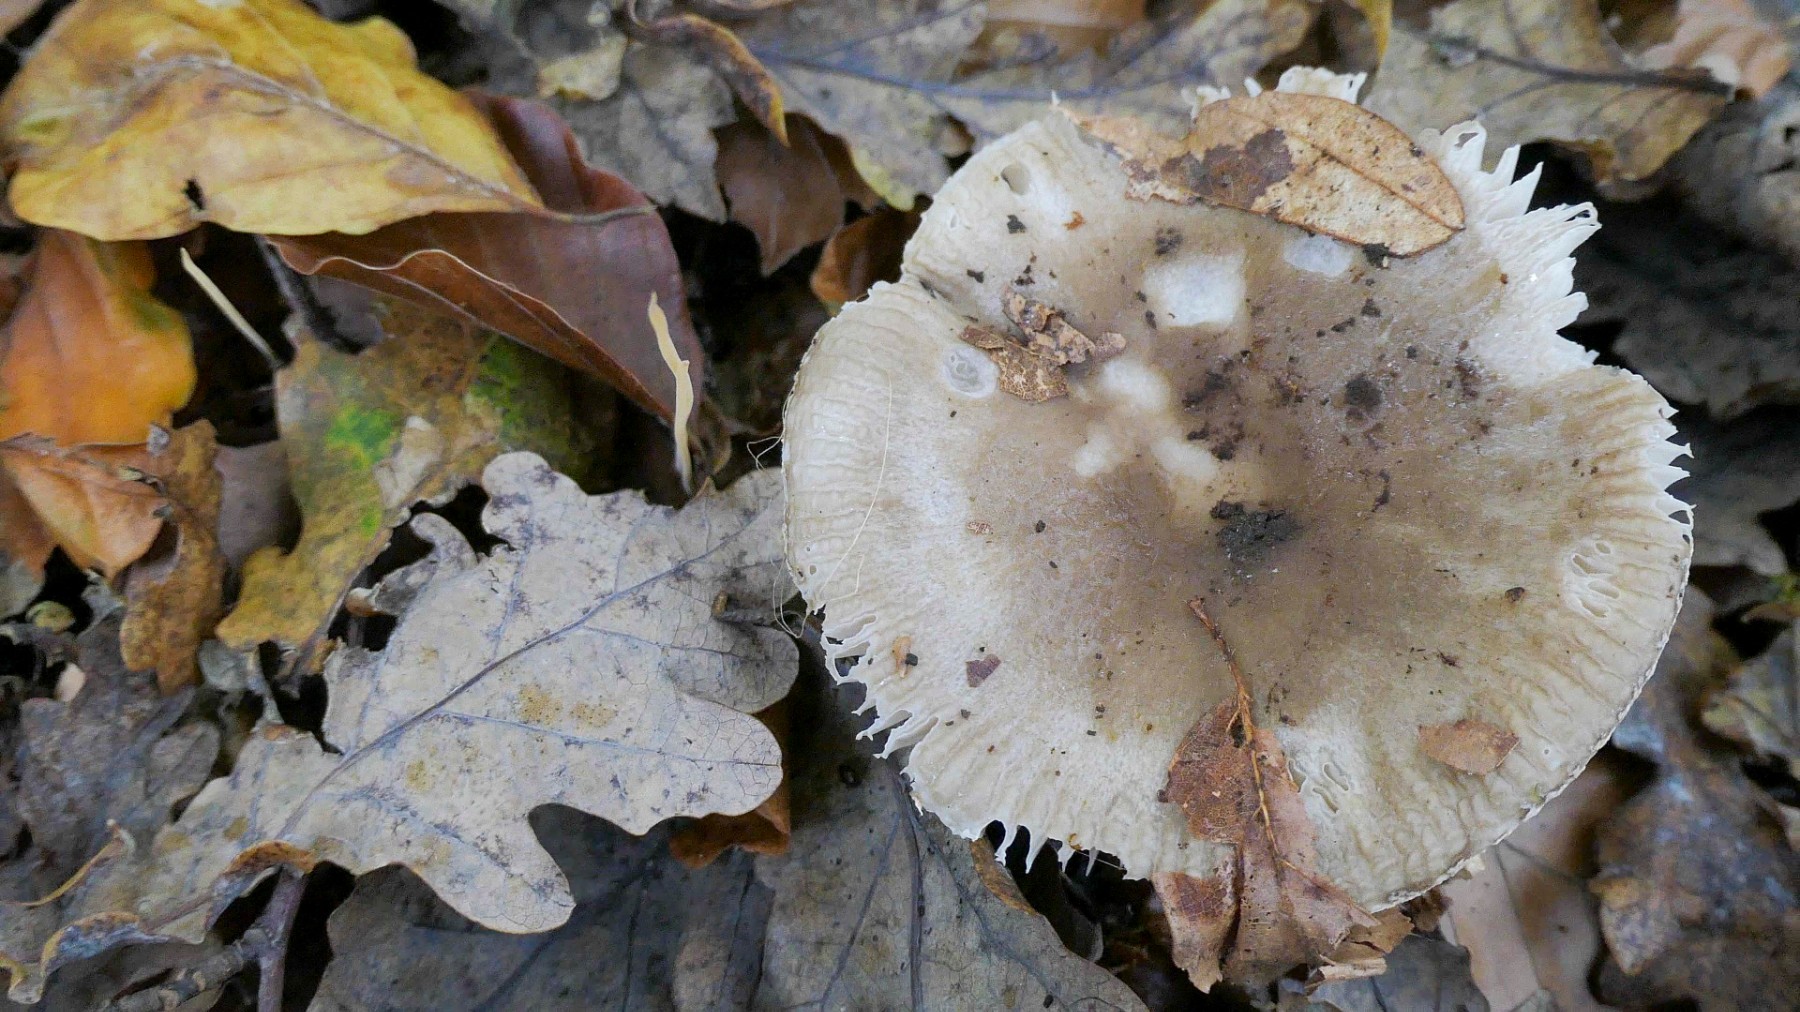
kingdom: Fungi
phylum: Basidiomycota
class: Agaricomycetes
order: Russulales
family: Russulaceae
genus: Russula
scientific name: Russula
